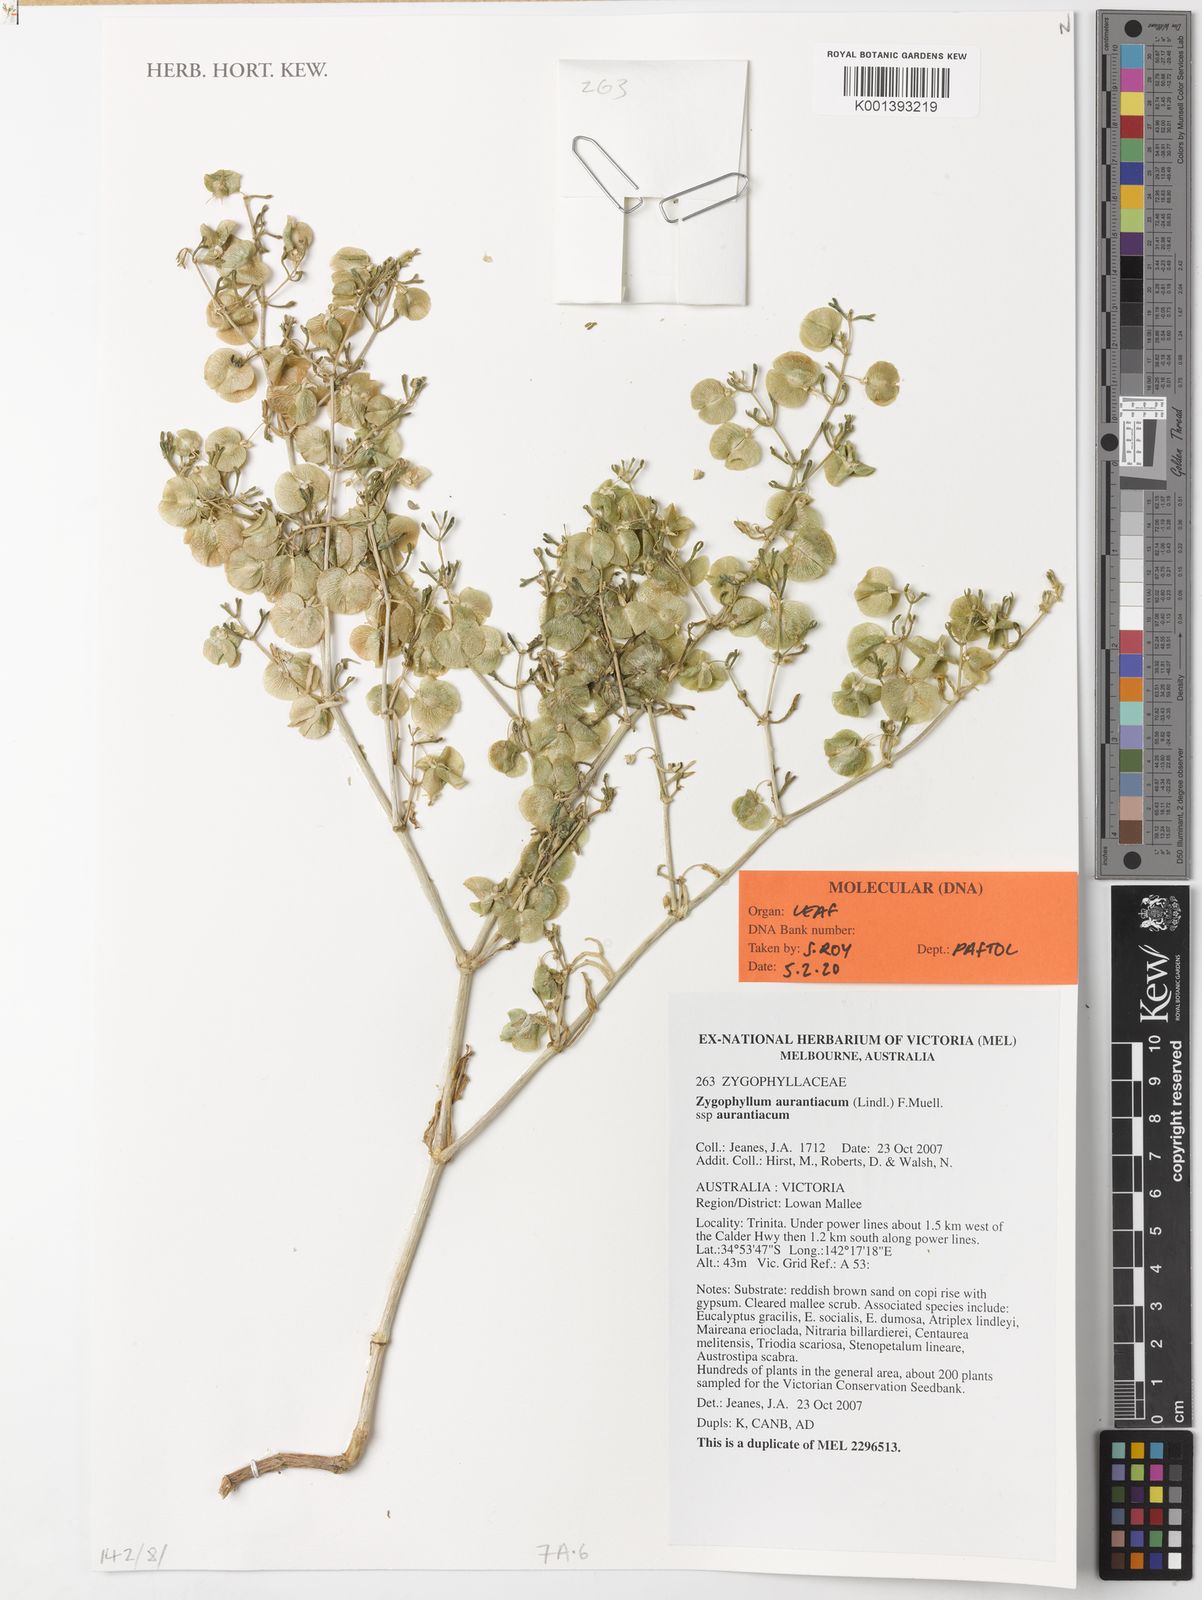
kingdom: Plantae
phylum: Tracheophyta
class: Magnoliopsida
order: Zygophyllales
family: Zygophyllaceae
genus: Roepera
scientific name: Roepera aurantiaca
